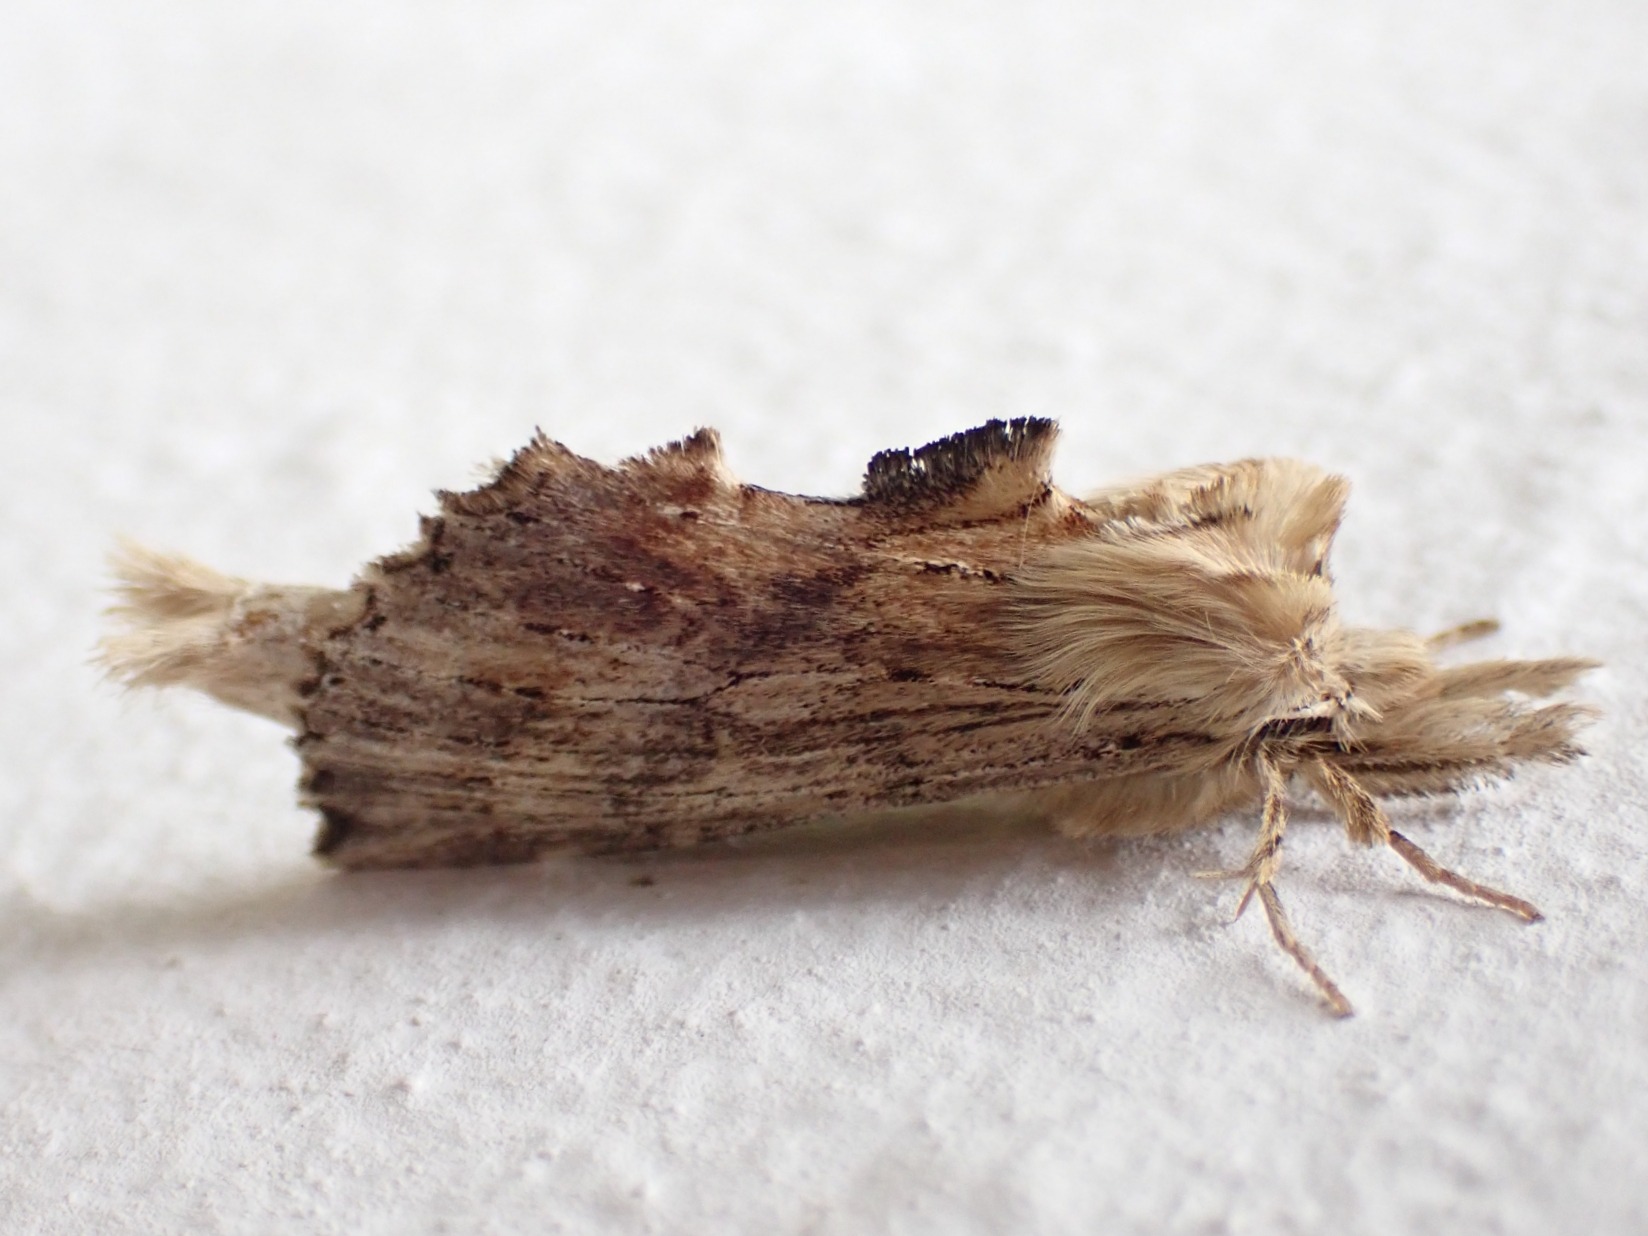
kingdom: Animalia
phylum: Arthropoda
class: Insecta
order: Lepidoptera
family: Notodontidae
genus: Pterostoma
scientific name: Pterostoma palpina
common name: Palpetandspinder
